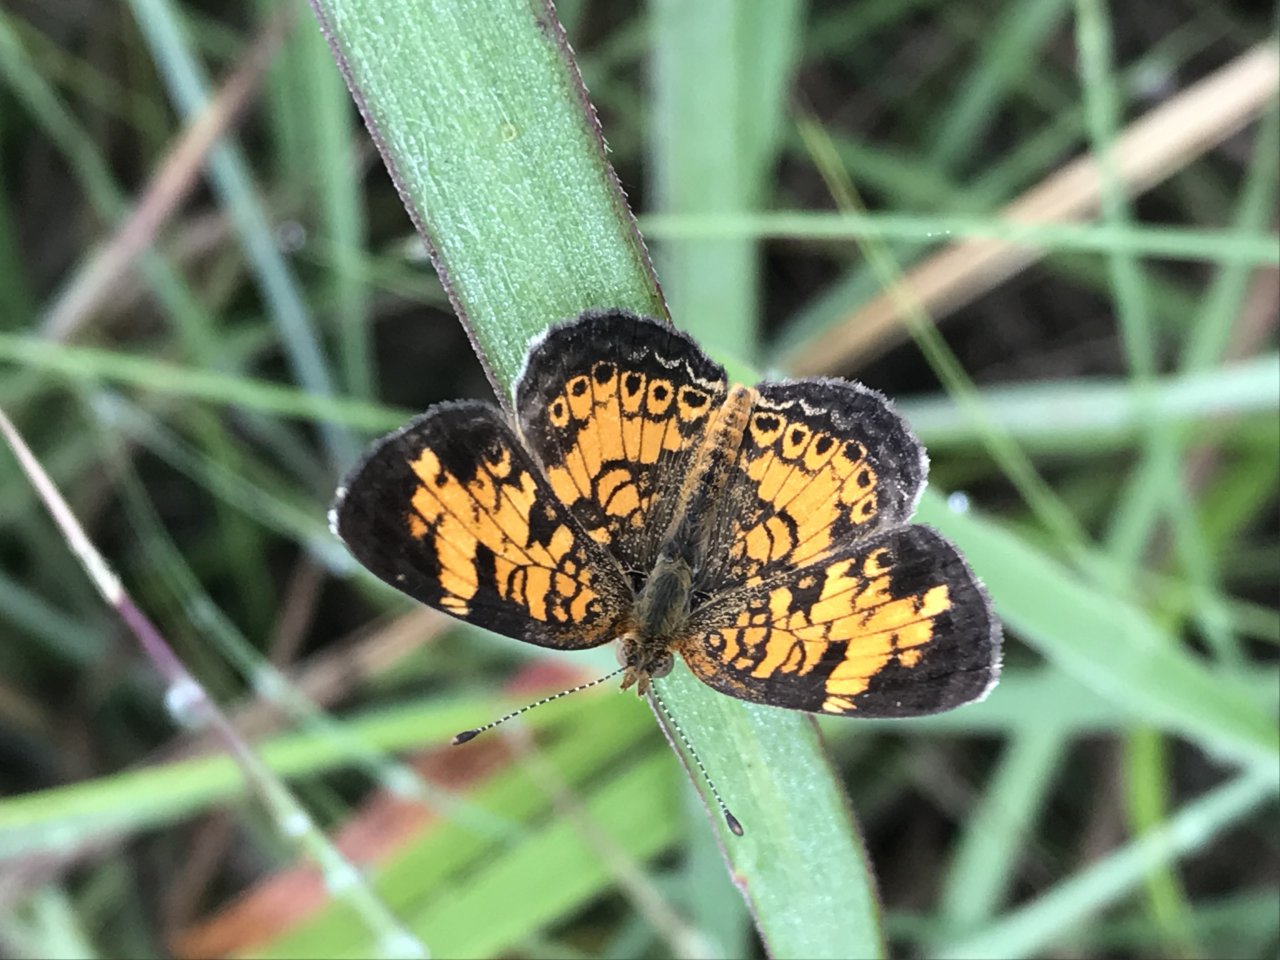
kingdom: Animalia
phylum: Arthropoda
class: Insecta
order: Lepidoptera
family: Nymphalidae
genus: Phyciodes
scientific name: Phyciodes tharos
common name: Pearl Crescent
